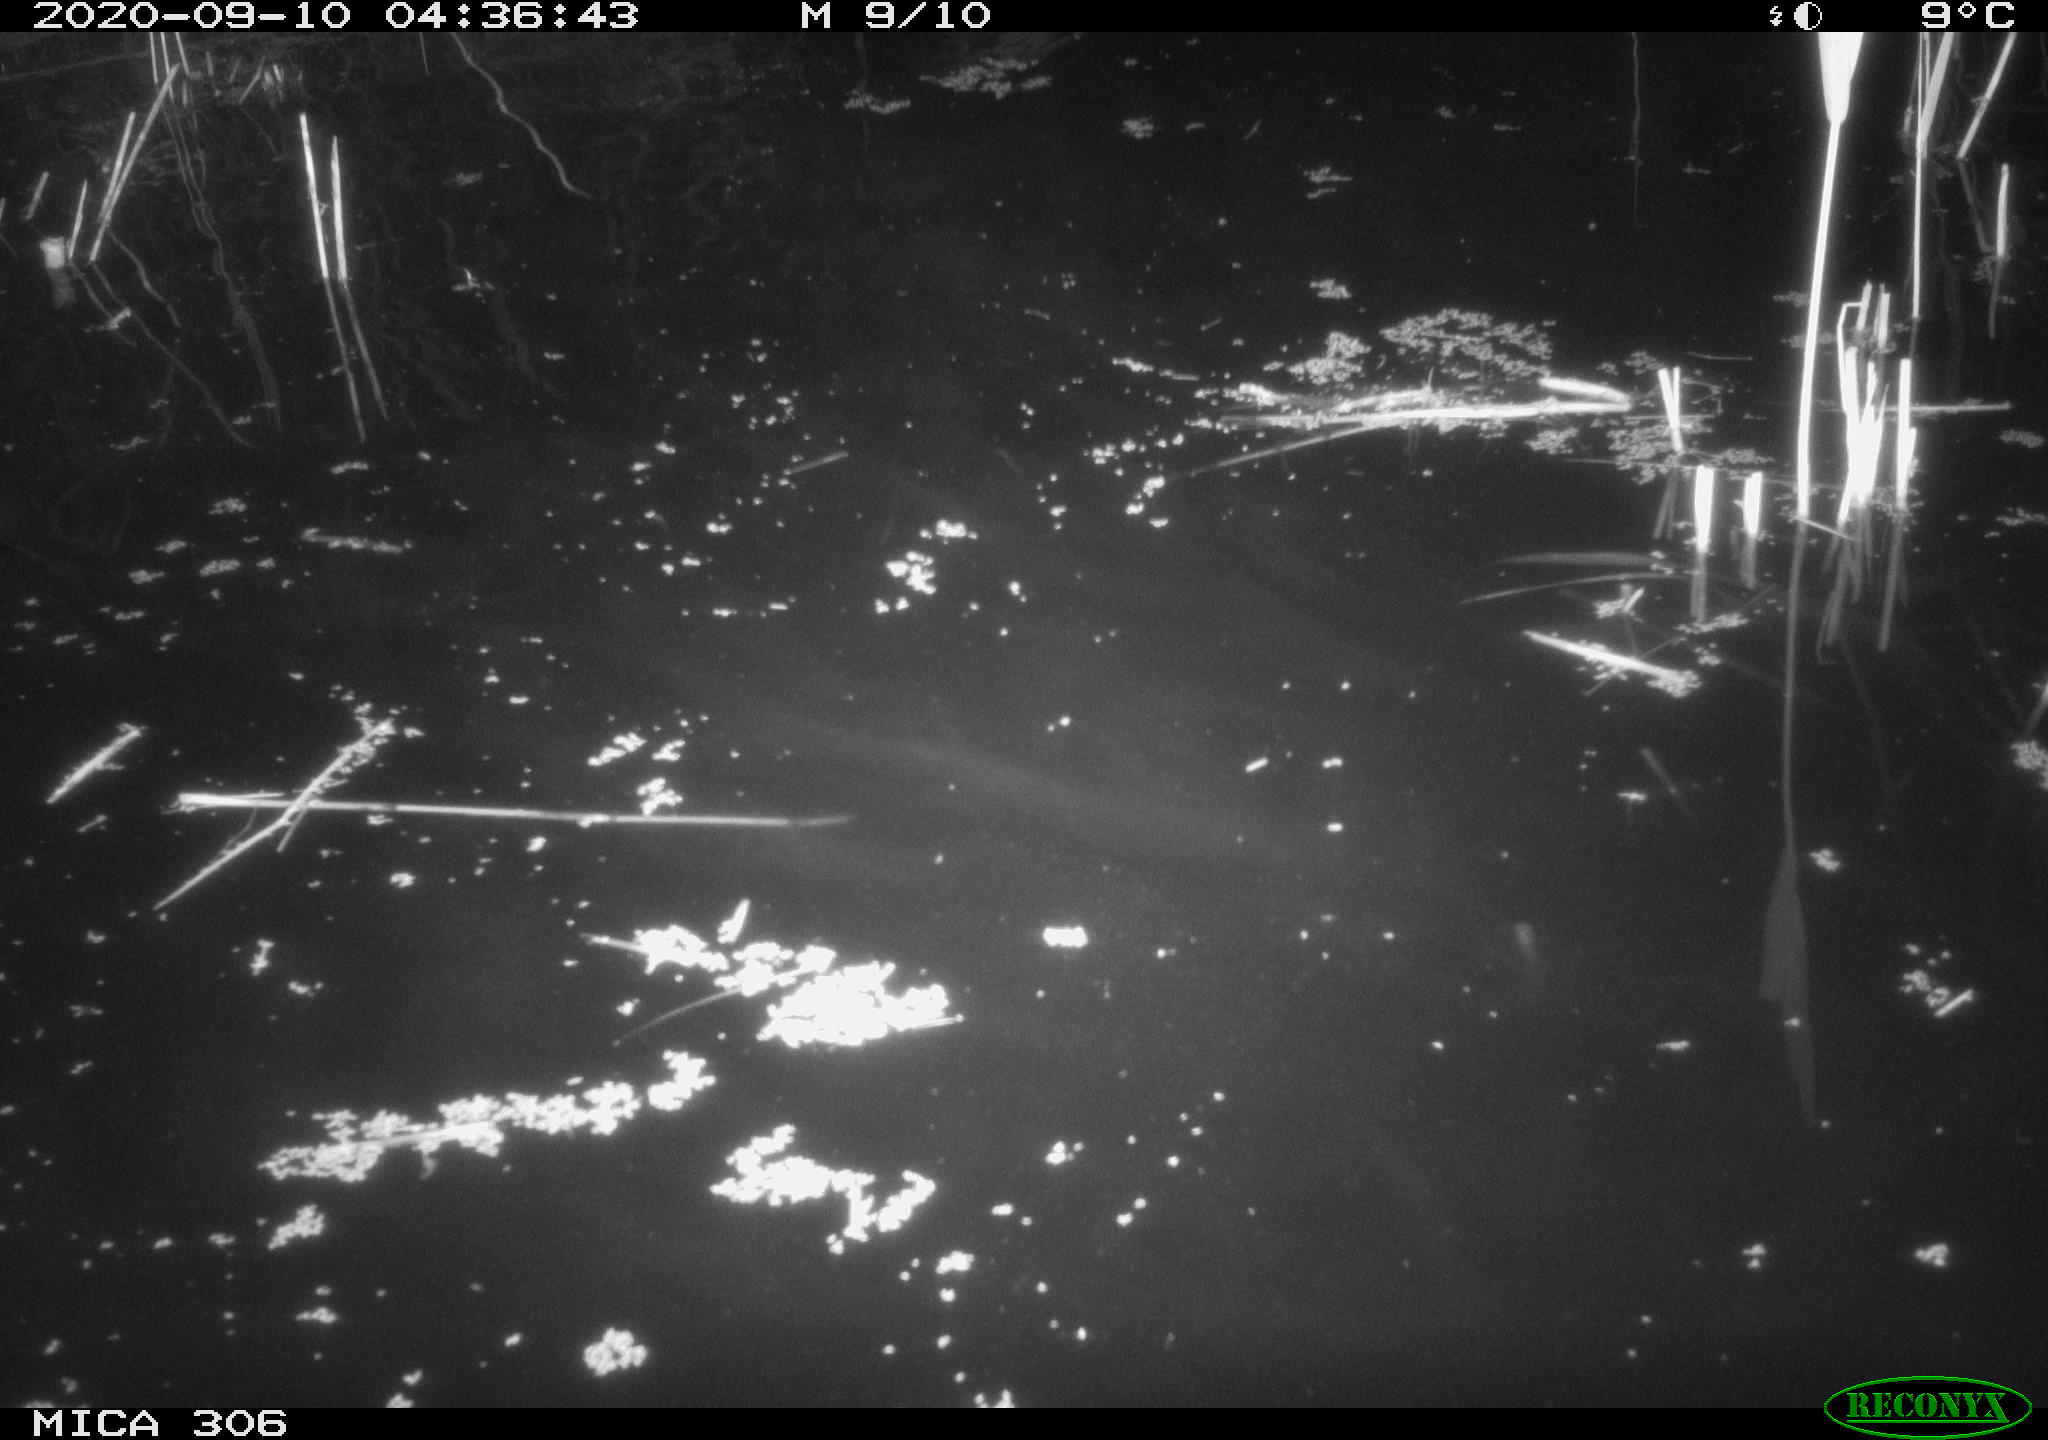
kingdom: Animalia
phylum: Chordata
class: Mammalia
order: Rodentia
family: Muridae
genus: Rattus
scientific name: Rattus norvegicus
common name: Brown rat
